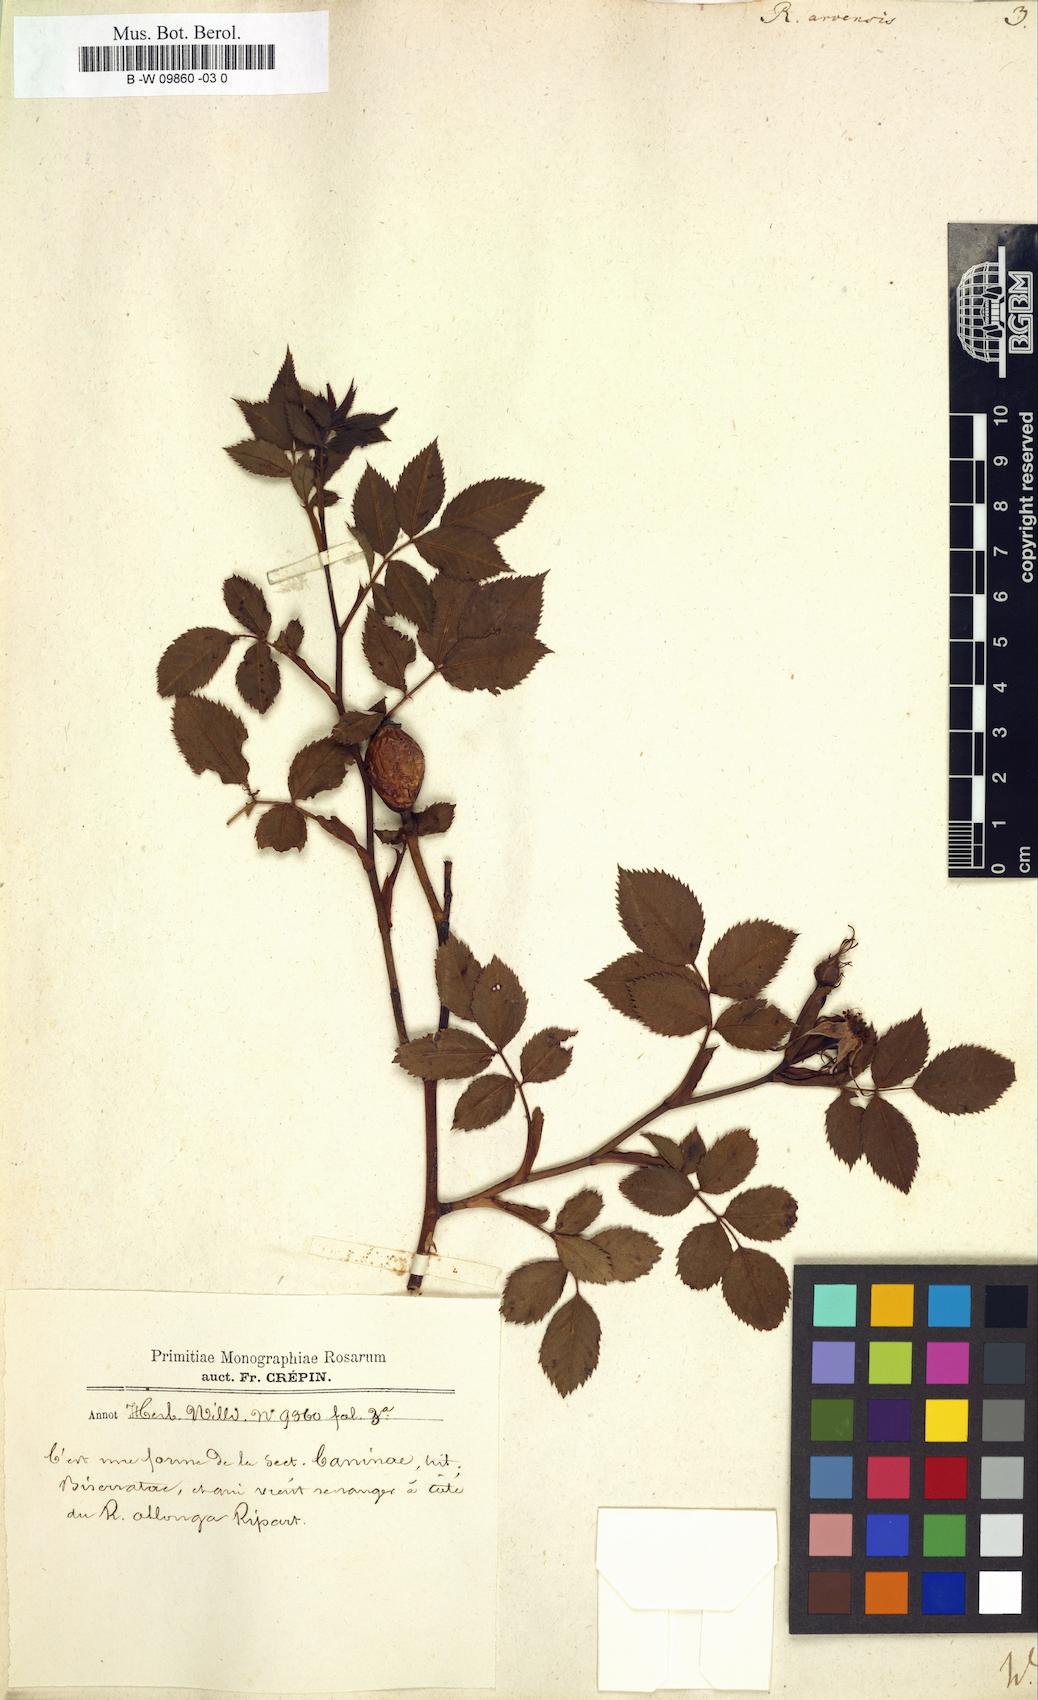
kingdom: Plantae
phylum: Tracheophyta
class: Magnoliopsida
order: Rosales
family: Rosaceae
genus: Rosa
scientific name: Rosa arvensis
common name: Field rose
